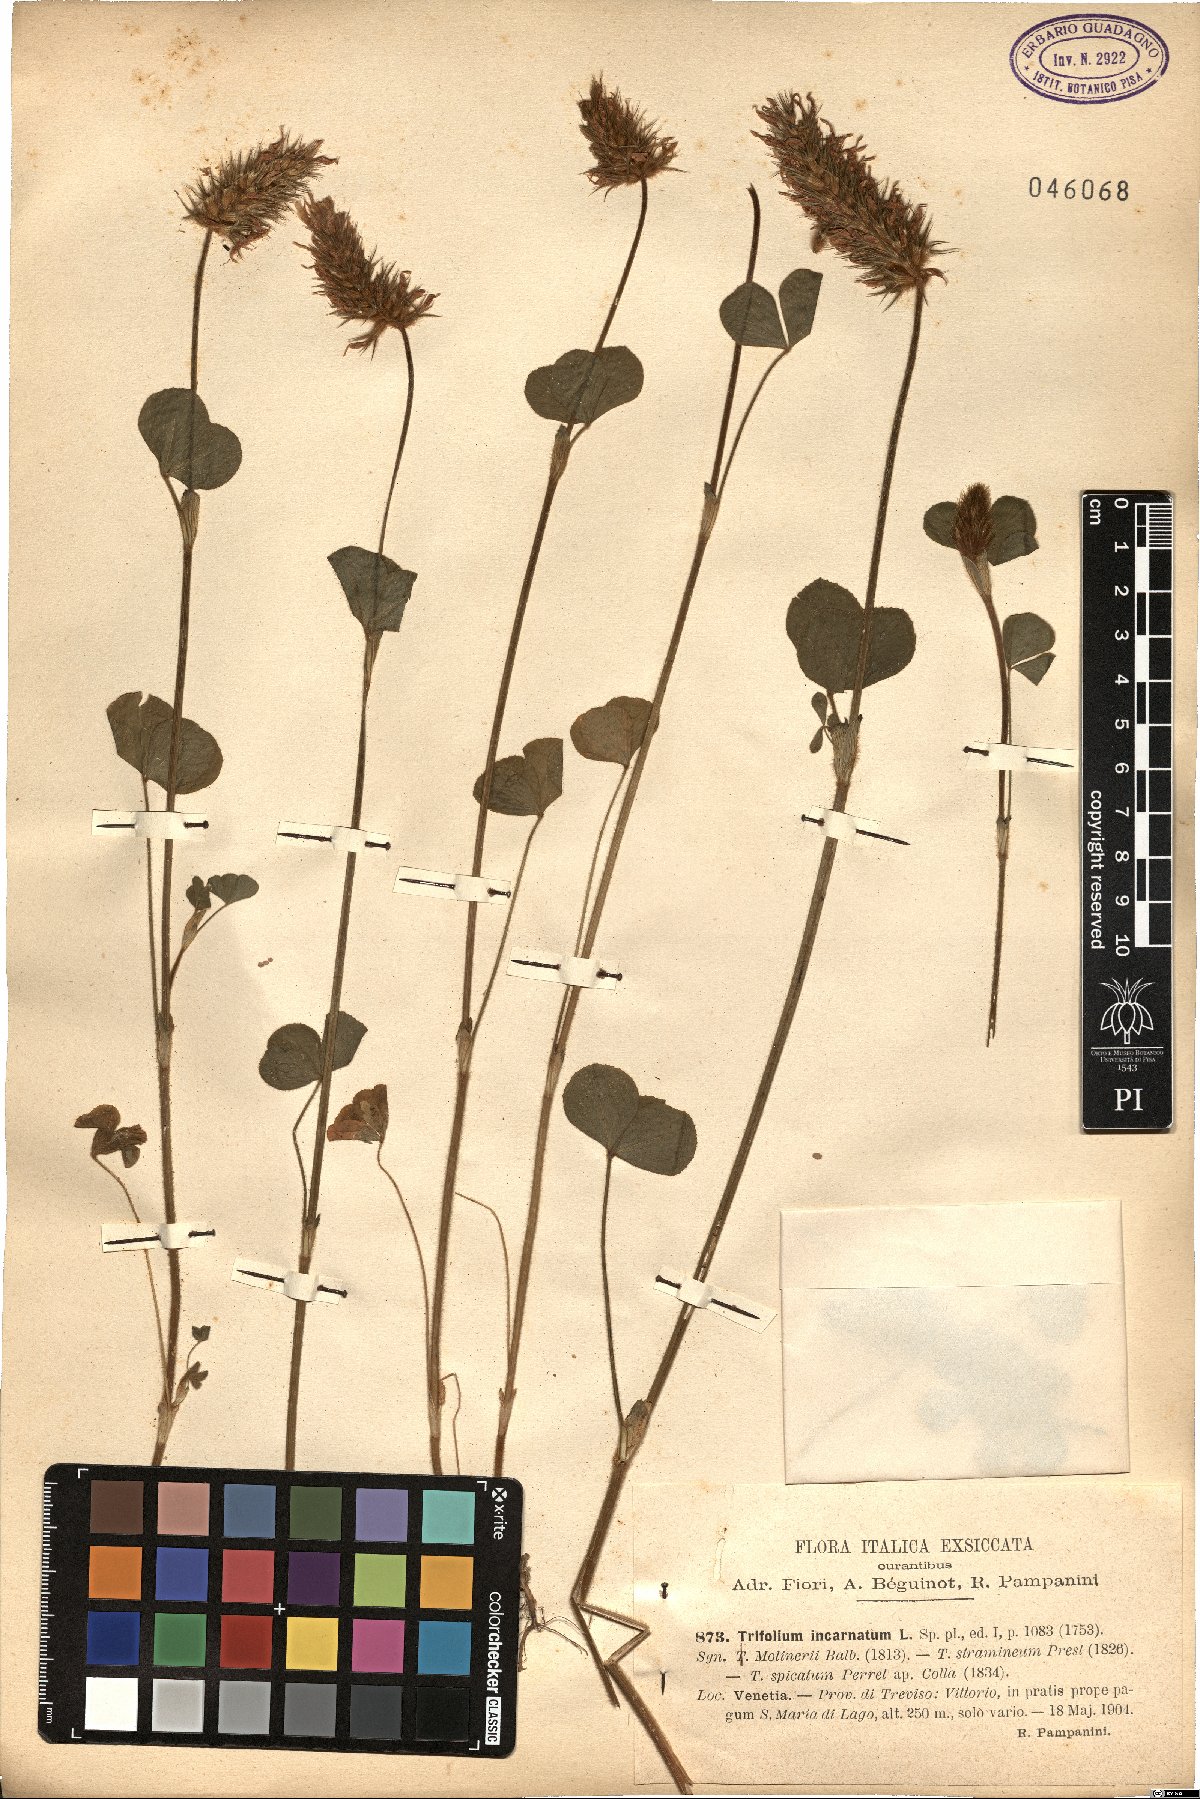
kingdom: Plantae
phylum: Tracheophyta
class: Magnoliopsida
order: Fabales
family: Fabaceae
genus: Trifolium
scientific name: Trifolium incarnatum
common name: Crimson clover
